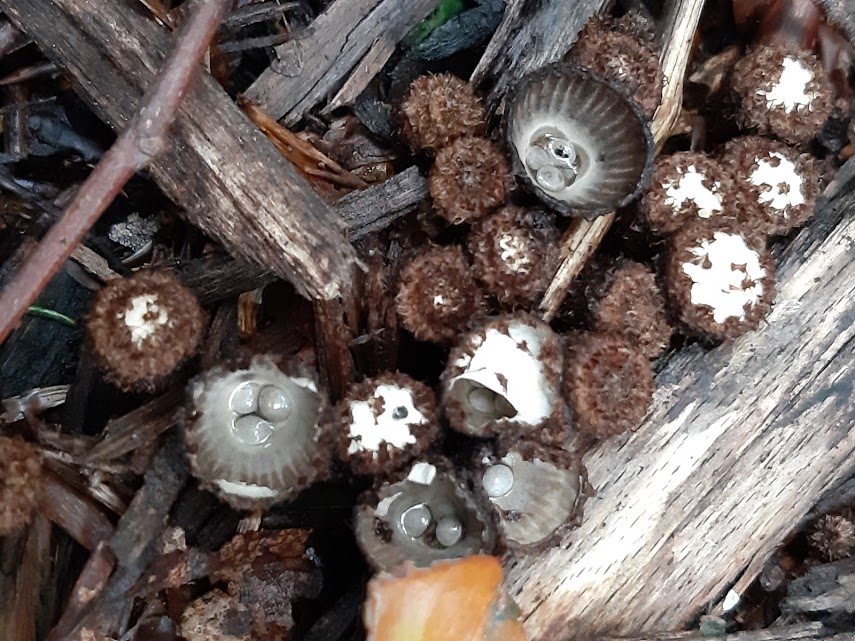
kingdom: Fungi
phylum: Basidiomycota
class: Agaricomycetes
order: Agaricales
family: Agaricaceae
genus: Cyathus
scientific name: Cyathus striatus
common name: stribet redesvamp
